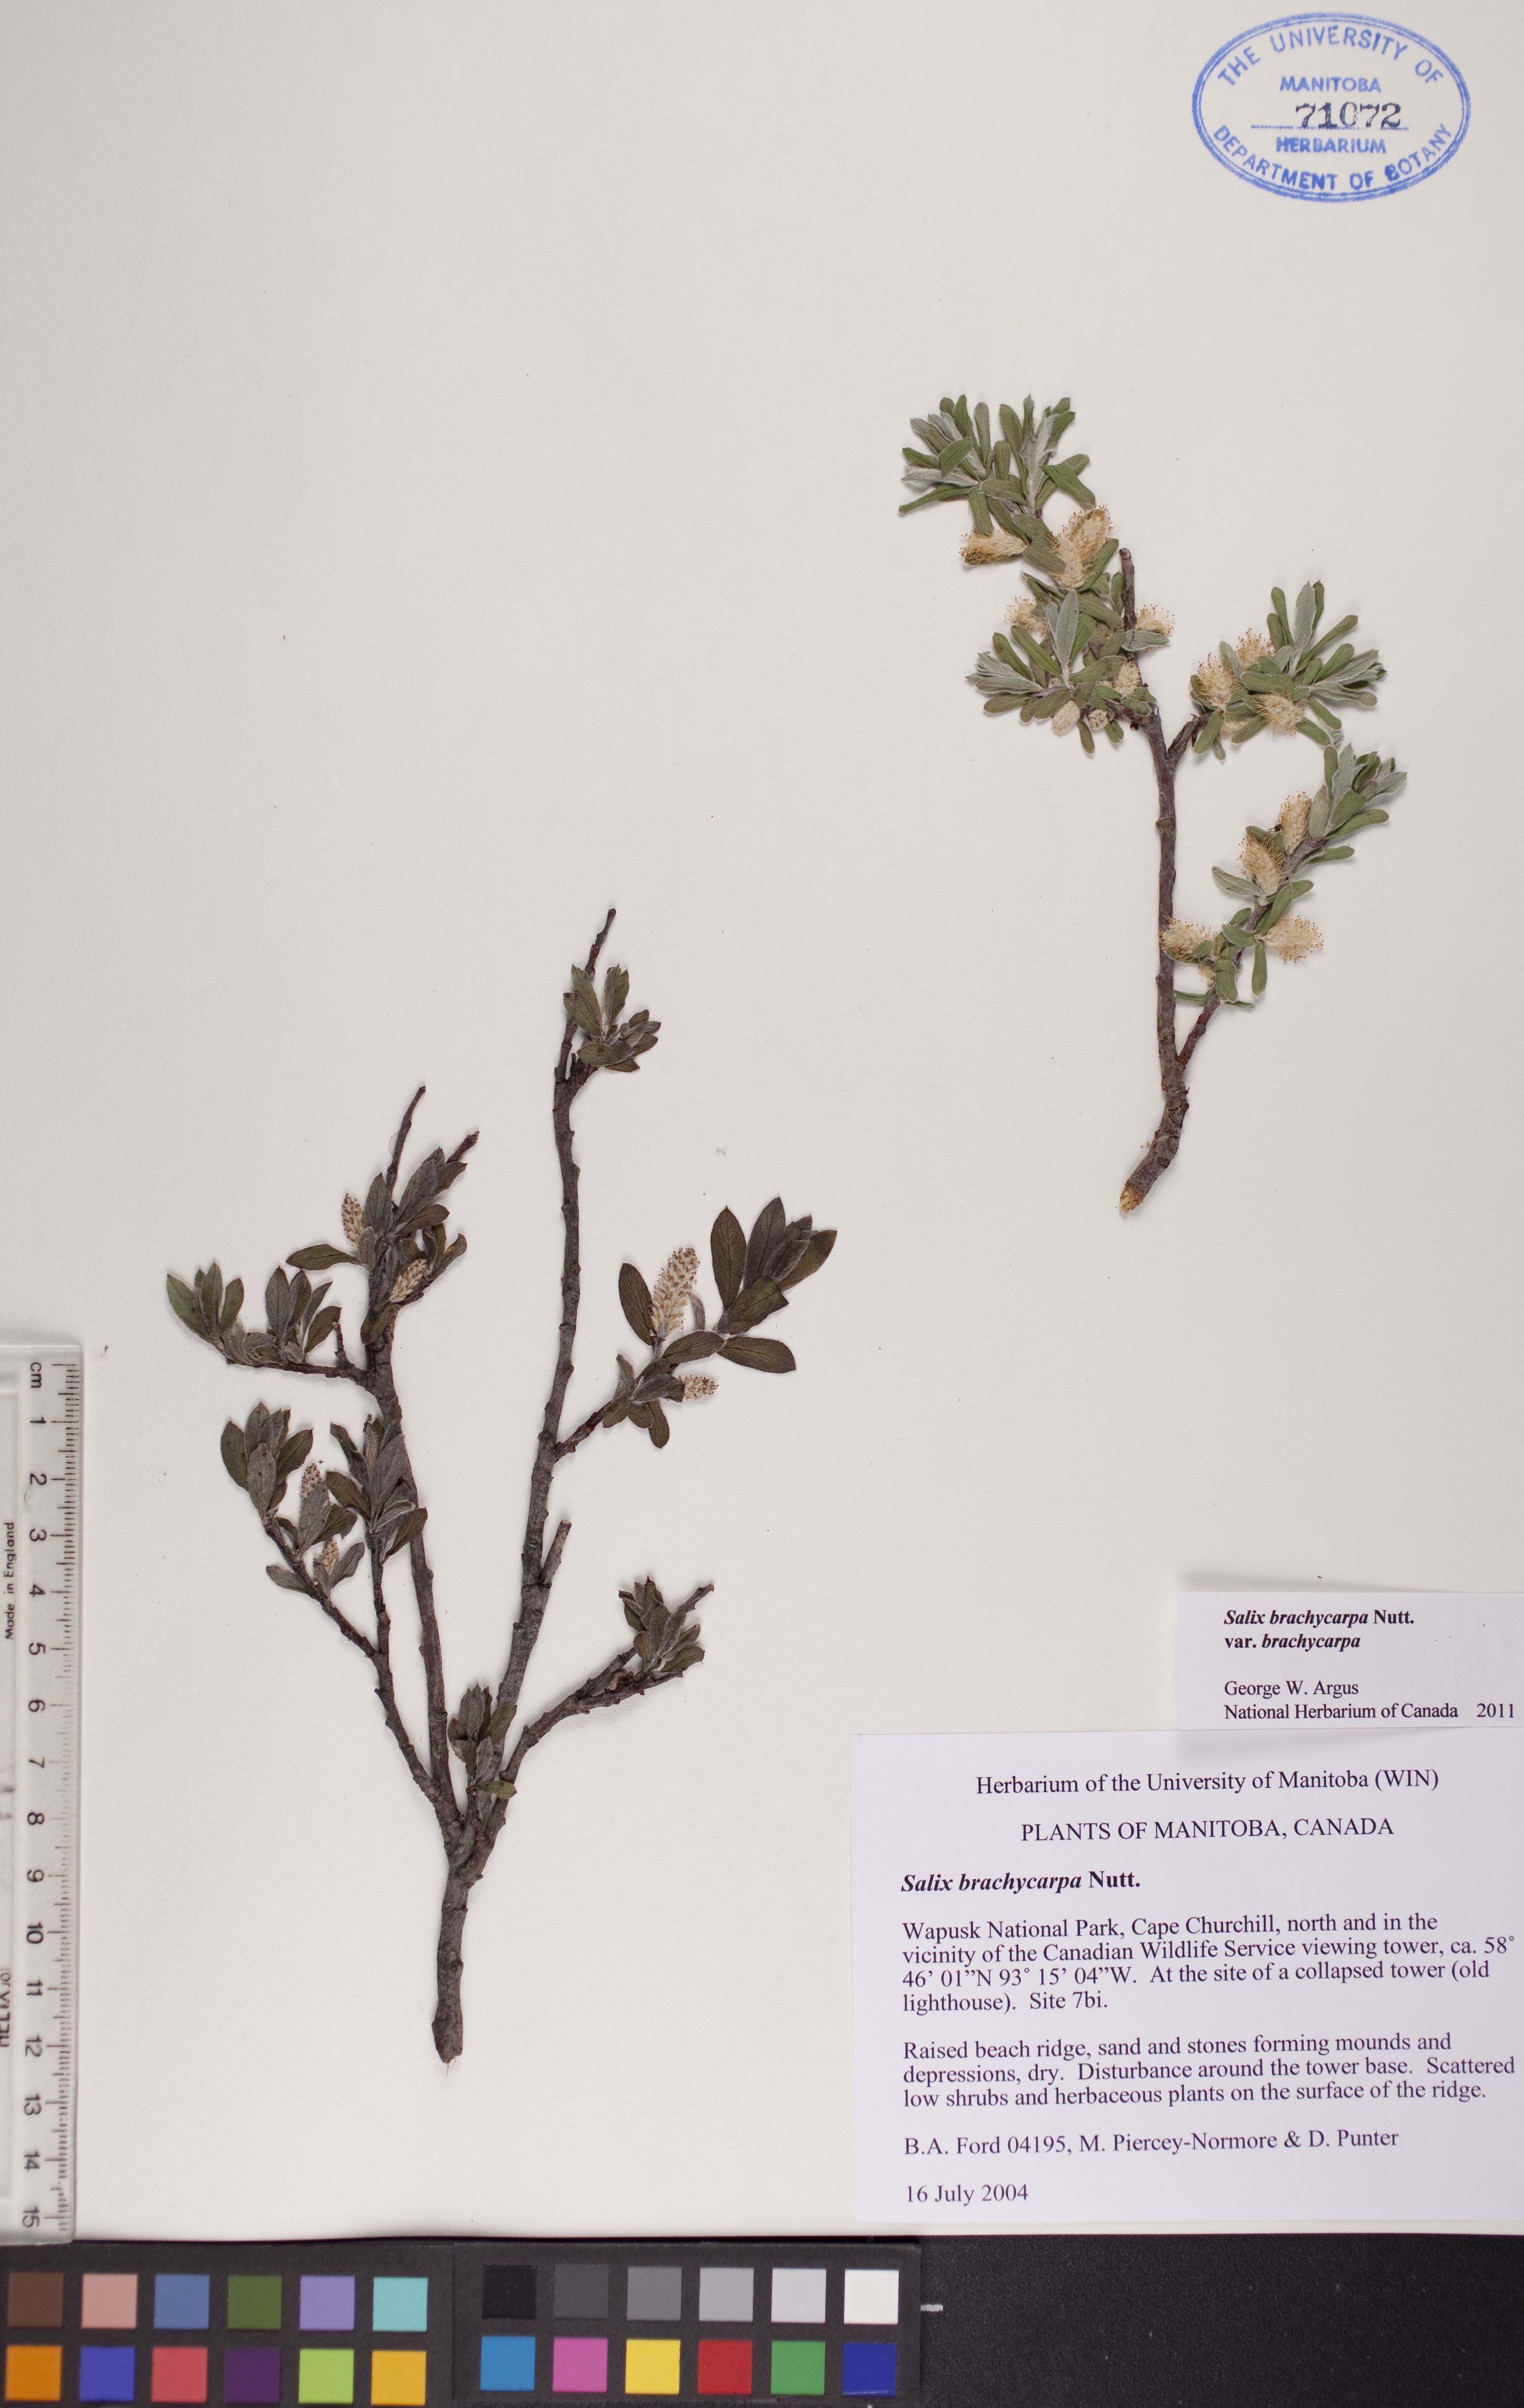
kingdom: Plantae
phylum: Tracheophyta
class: Magnoliopsida
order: Malpighiales
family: Salicaceae
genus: Salix
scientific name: Salix brachycarpa
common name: Barren-ground willow
